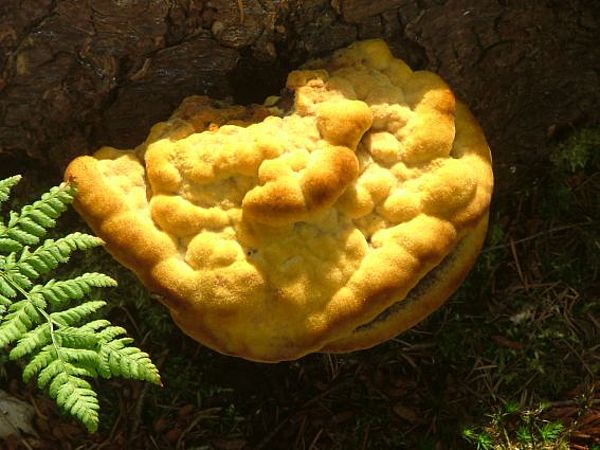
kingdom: Fungi
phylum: Basidiomycota
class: Agaricomycetes
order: Polyporales
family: Laetiporaceae
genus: Phaeolus
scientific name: Phaeolus schweinitzii
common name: brunporesvamp
